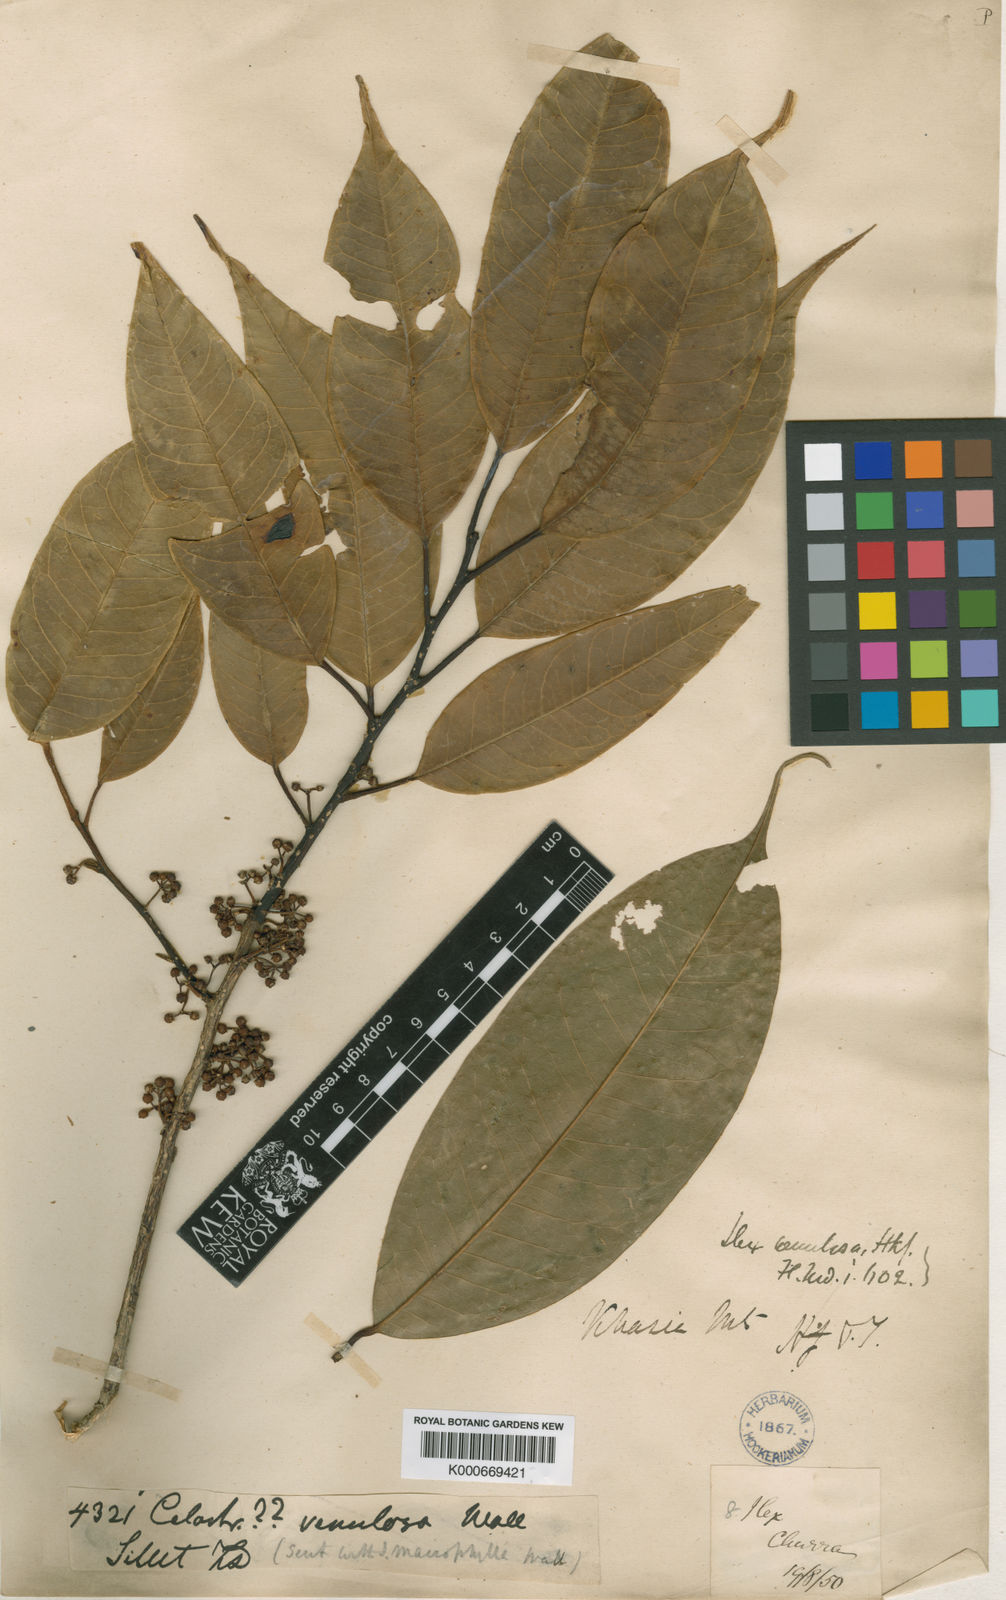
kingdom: Plantae
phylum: Tracheophyta
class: Magnoliopsida
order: Aquifoliales
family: Aquifoliaceae
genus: Ilex
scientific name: Ilex venulosa
